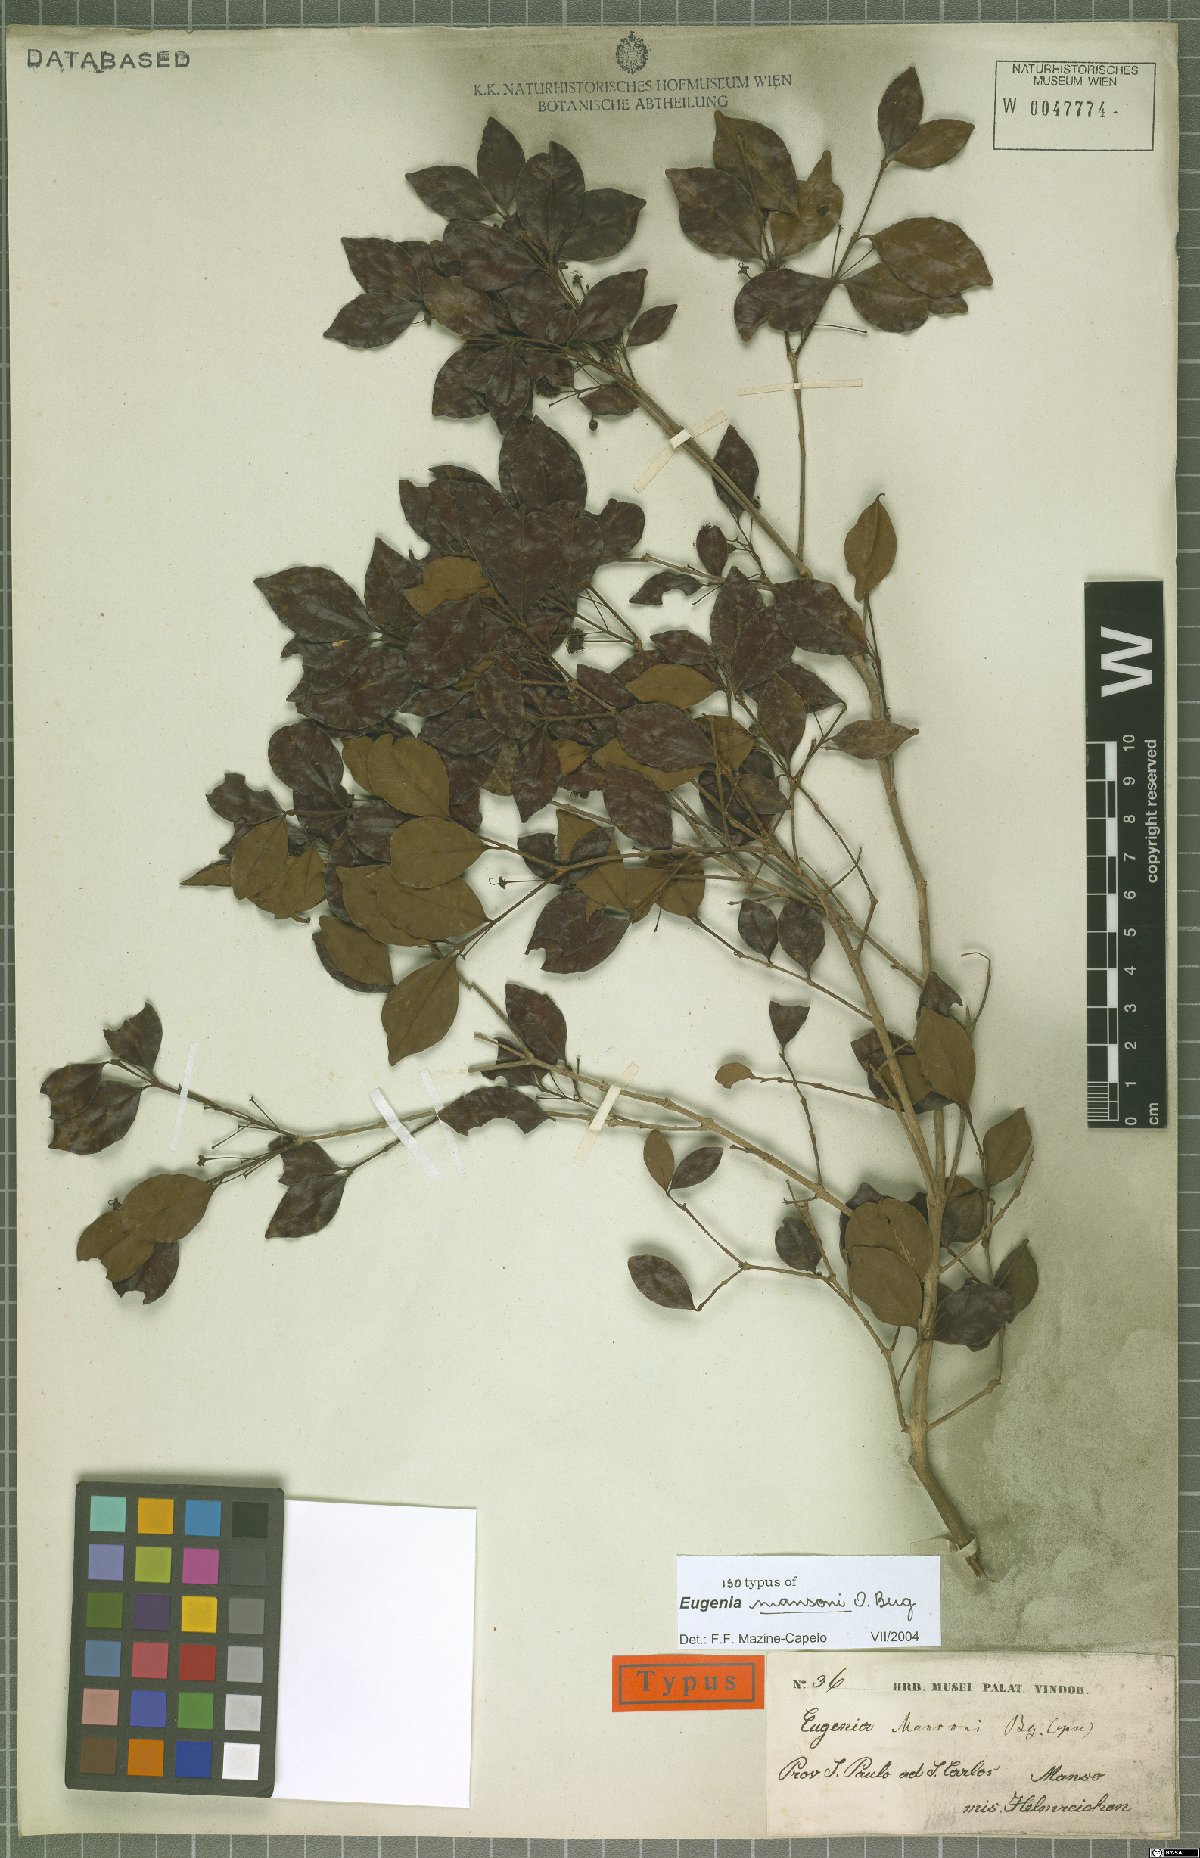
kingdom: Plantae
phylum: Tracheophyta
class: Magnoliopsida
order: Myrtales
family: Myrtaceae
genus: Eugenia
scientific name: Eugenia mansoi
